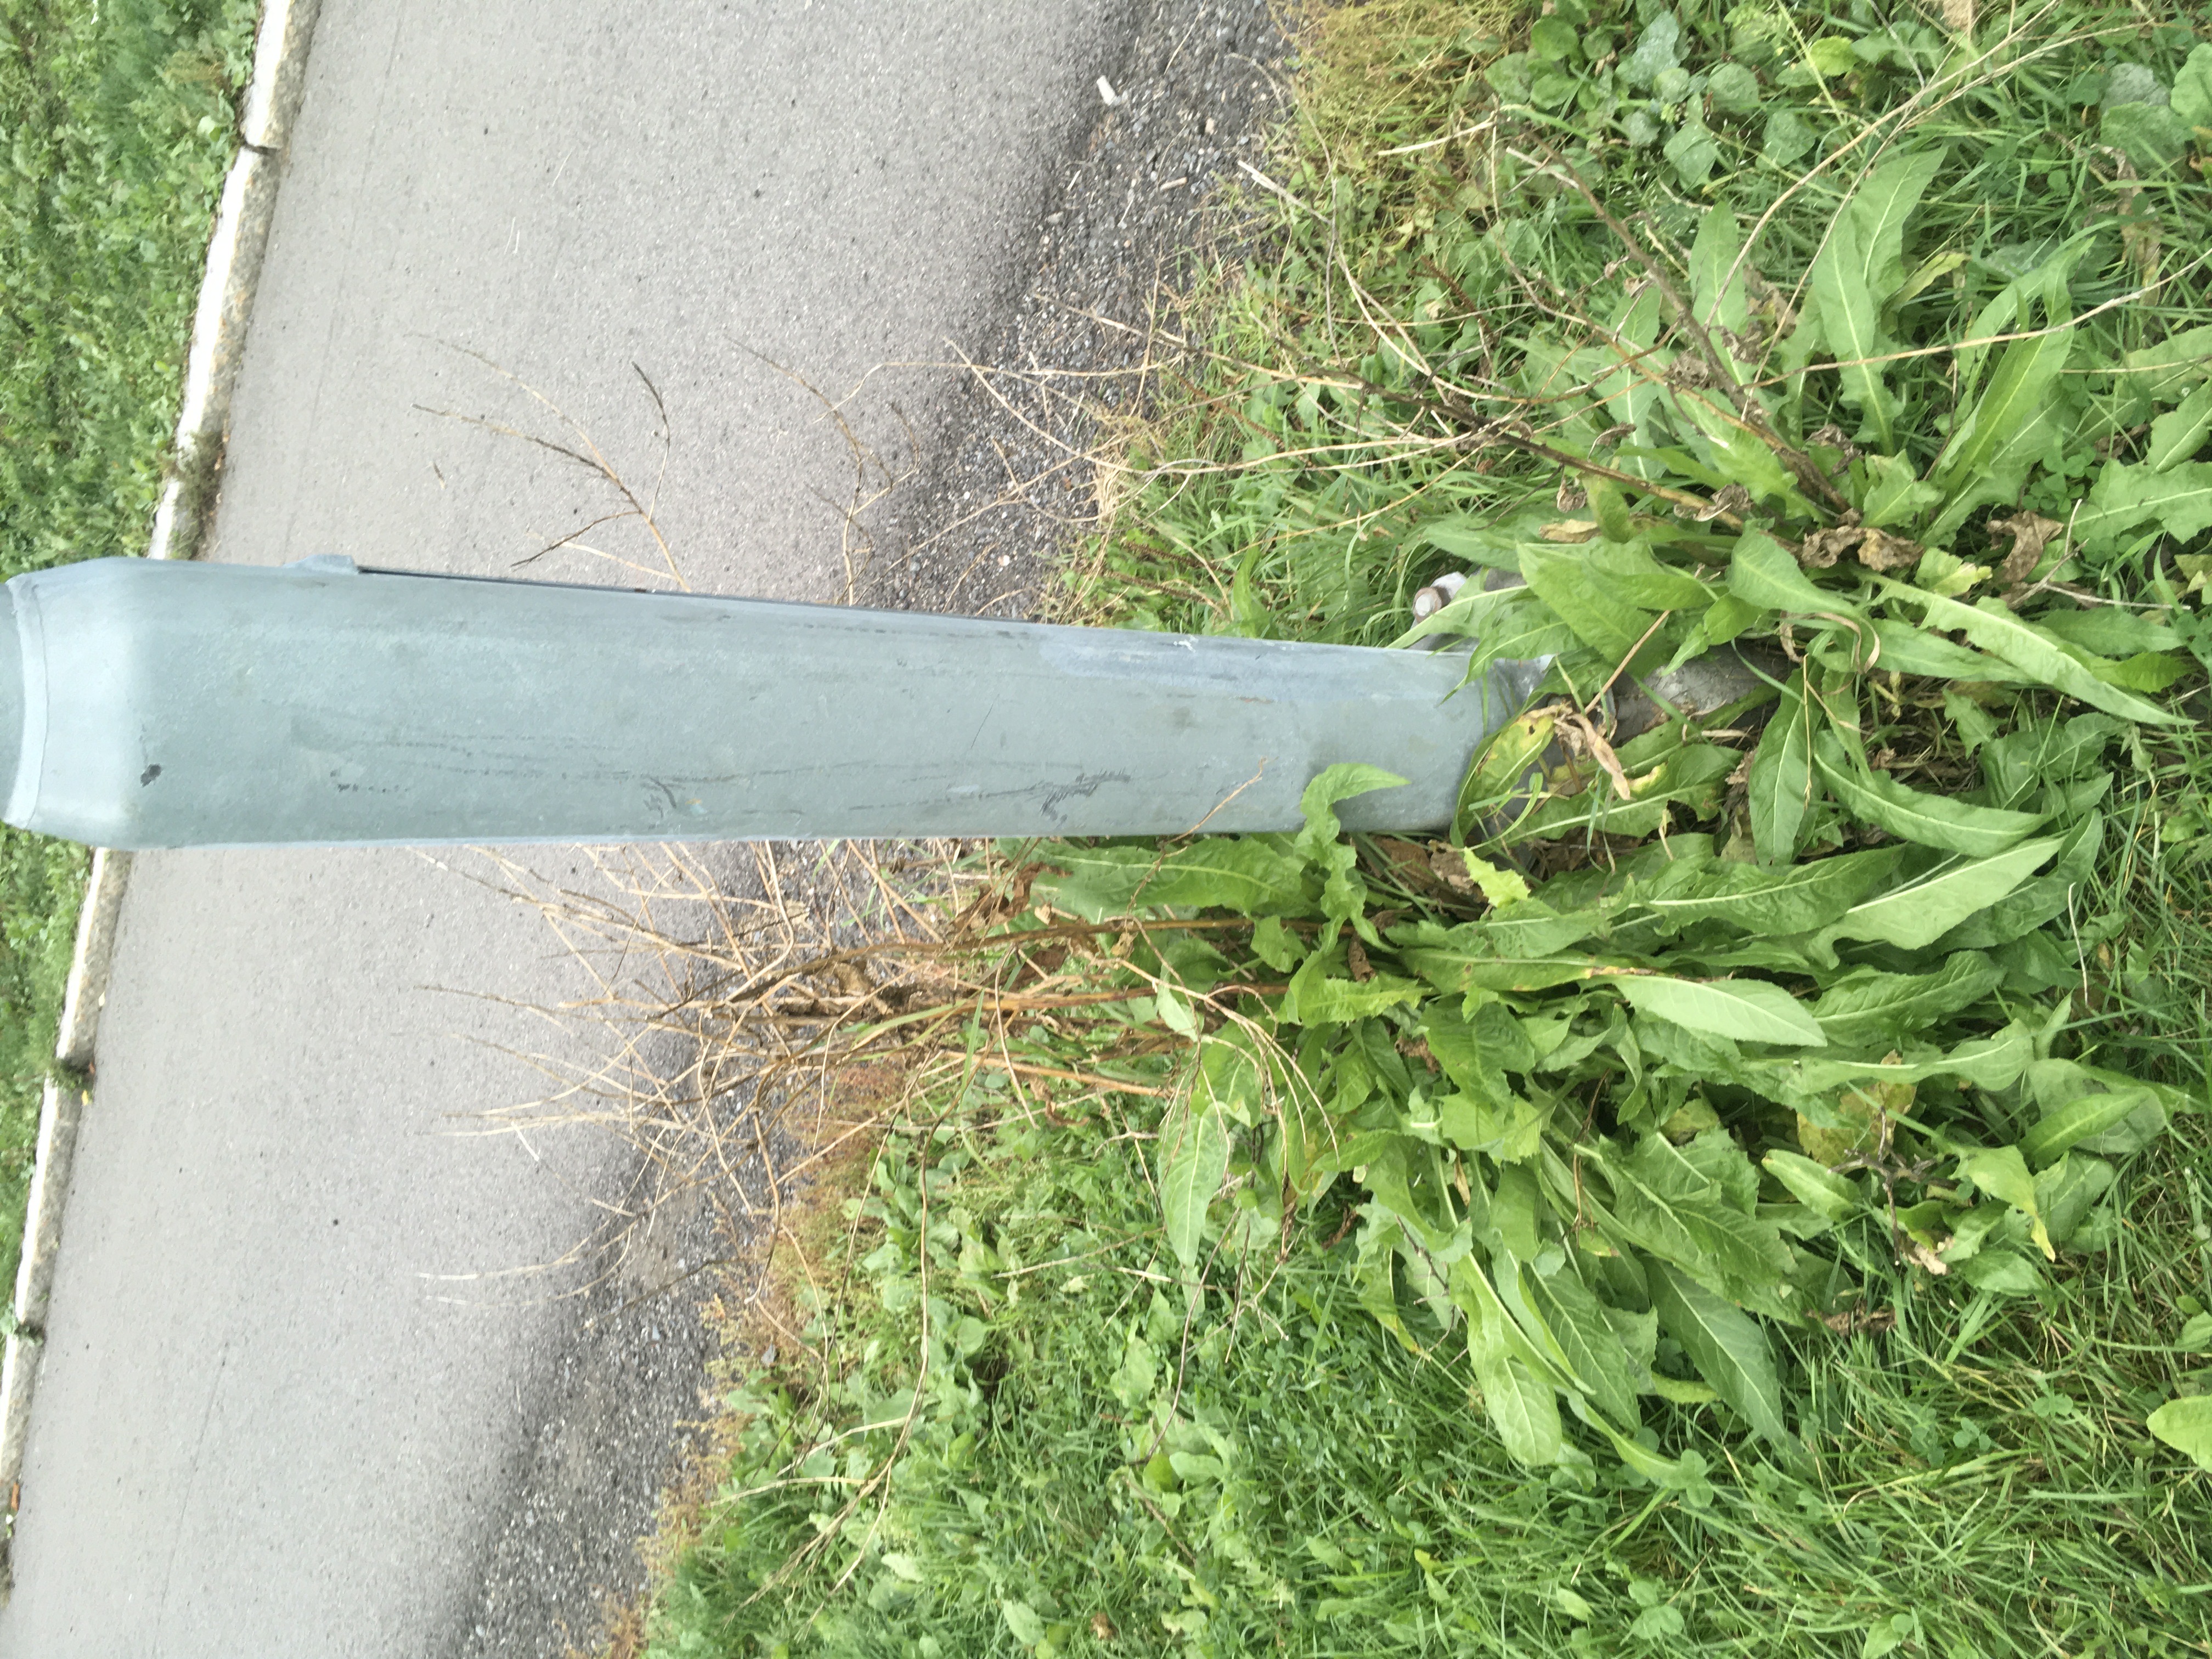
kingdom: Plantae
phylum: Tracheophyta
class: Magnoliopsida
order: Brassicales
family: Brassicaceae
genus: Bunias
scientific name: Bunias orientalis
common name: russekål
